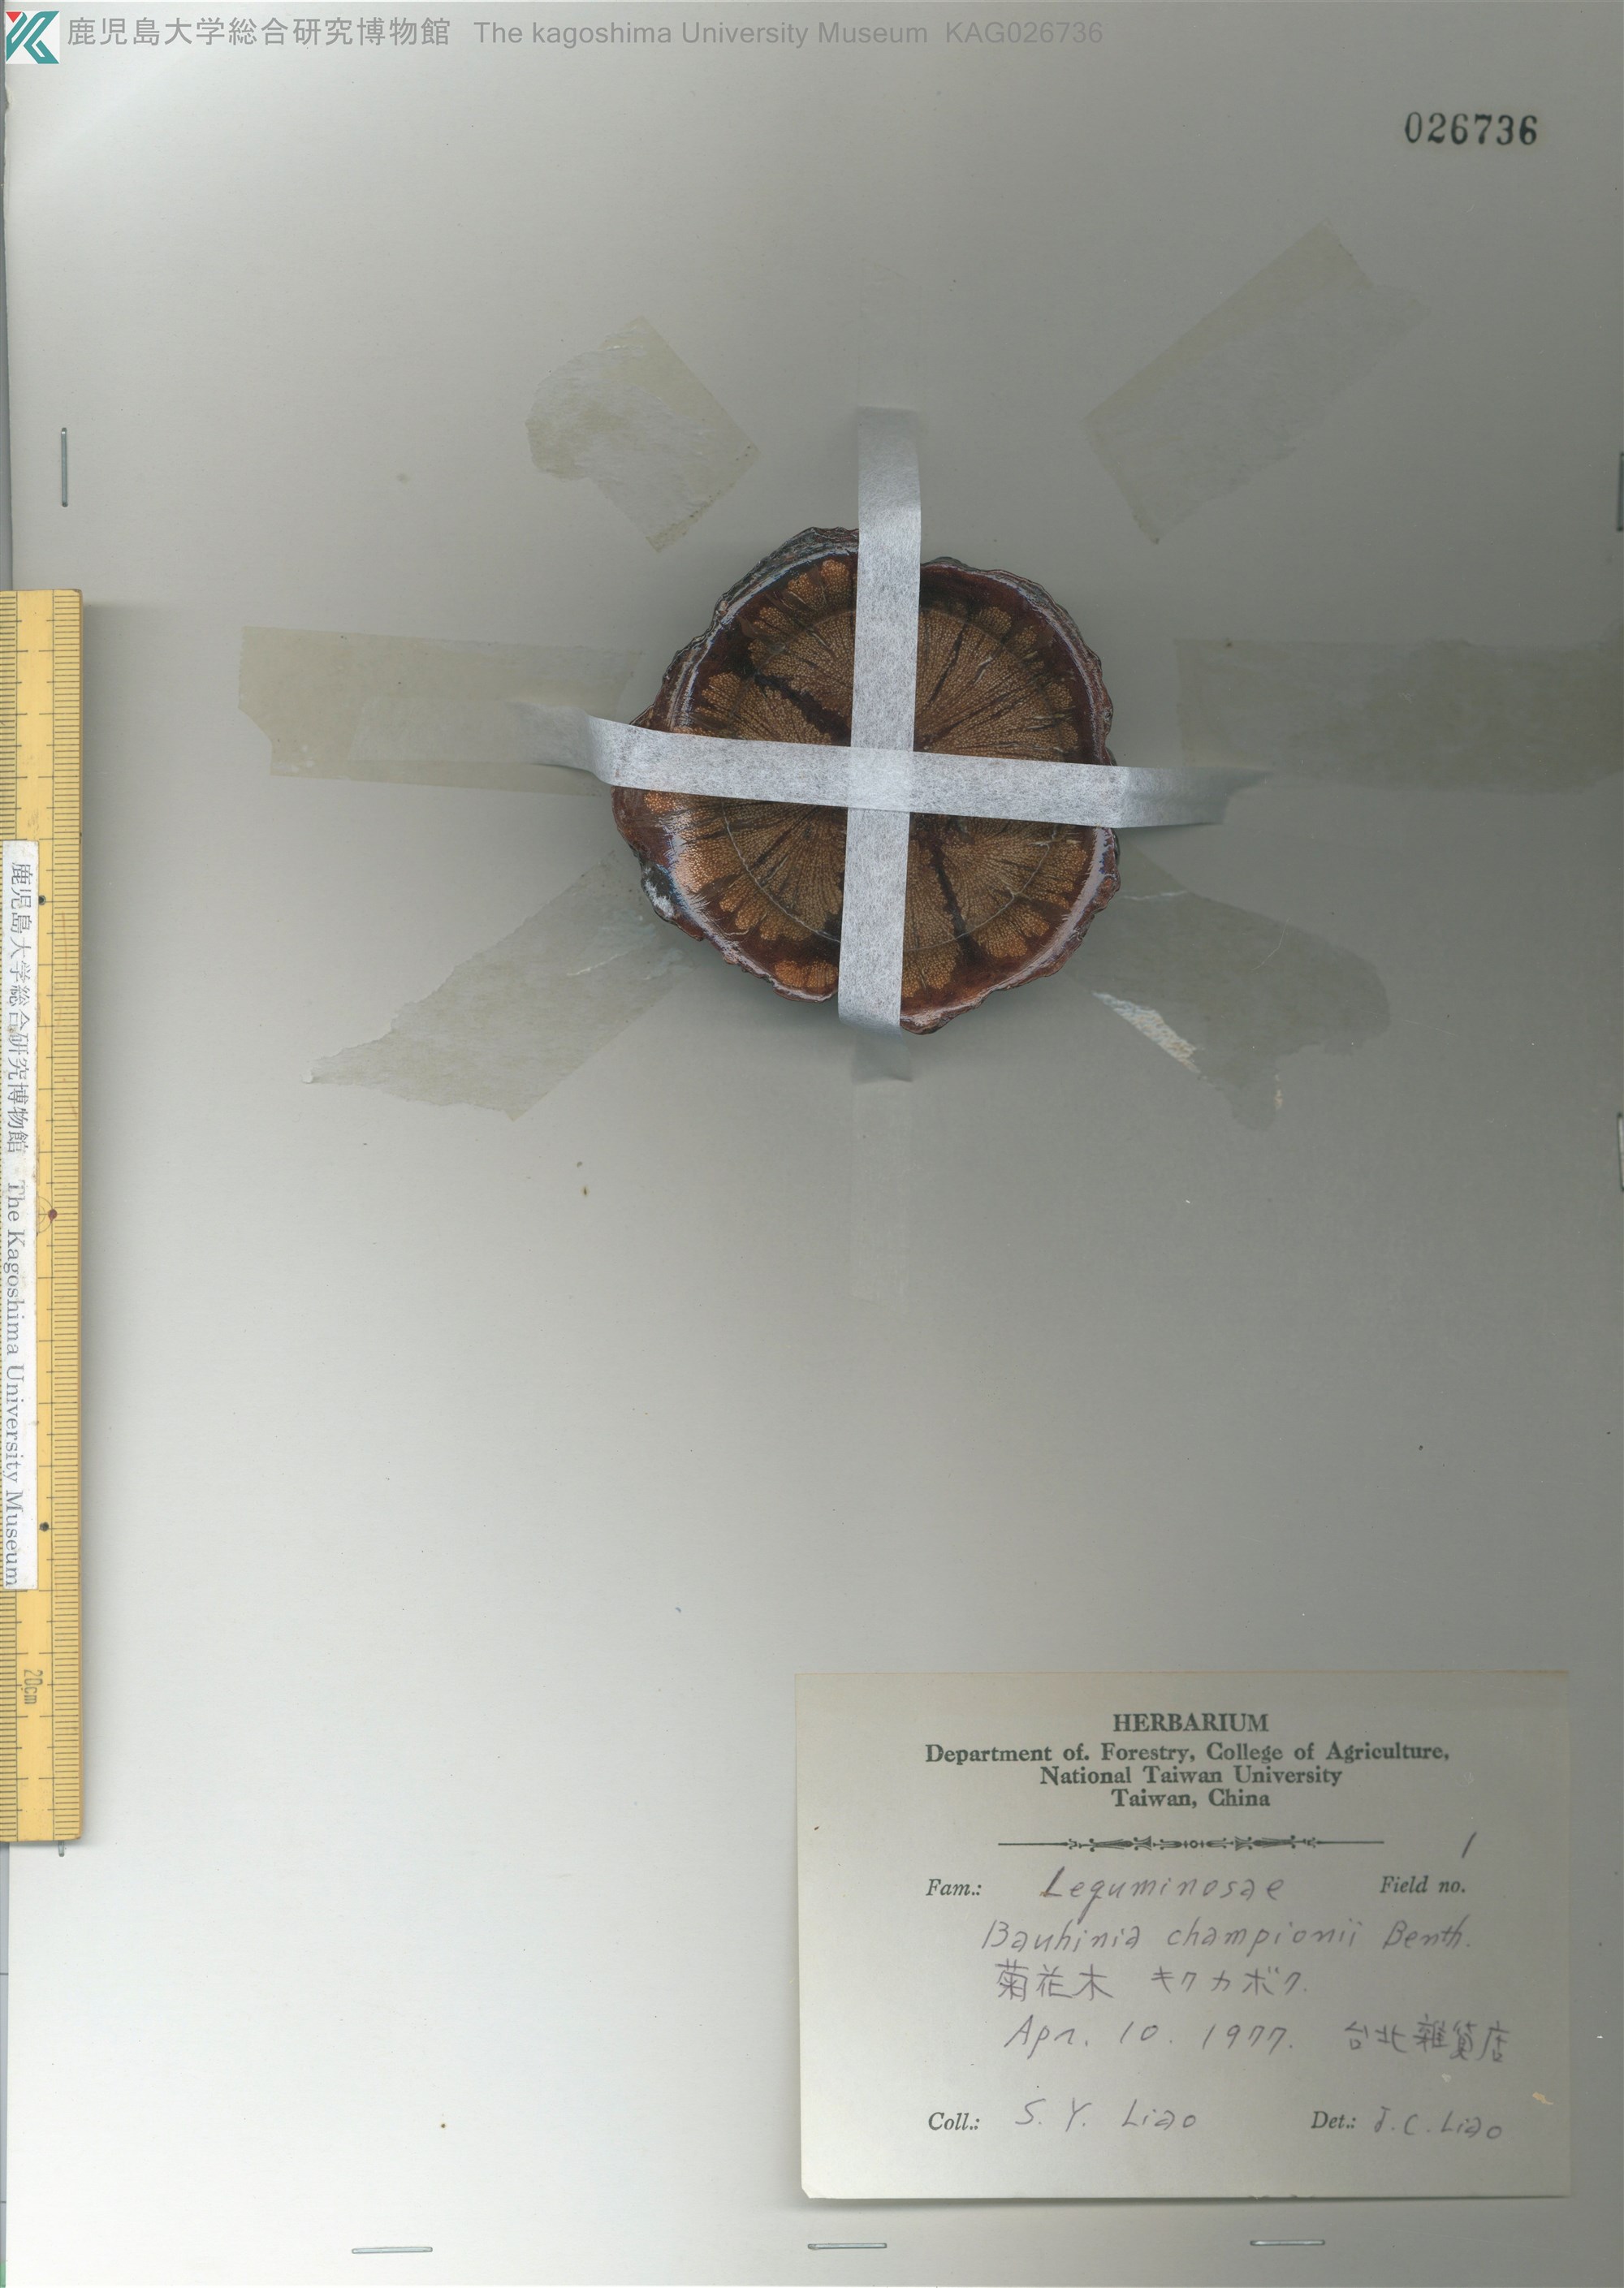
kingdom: Plantae
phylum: Tracheophyta
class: Magnoliopsida
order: Fabales
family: Fabaceae
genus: Phanera
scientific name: Phanera championii
